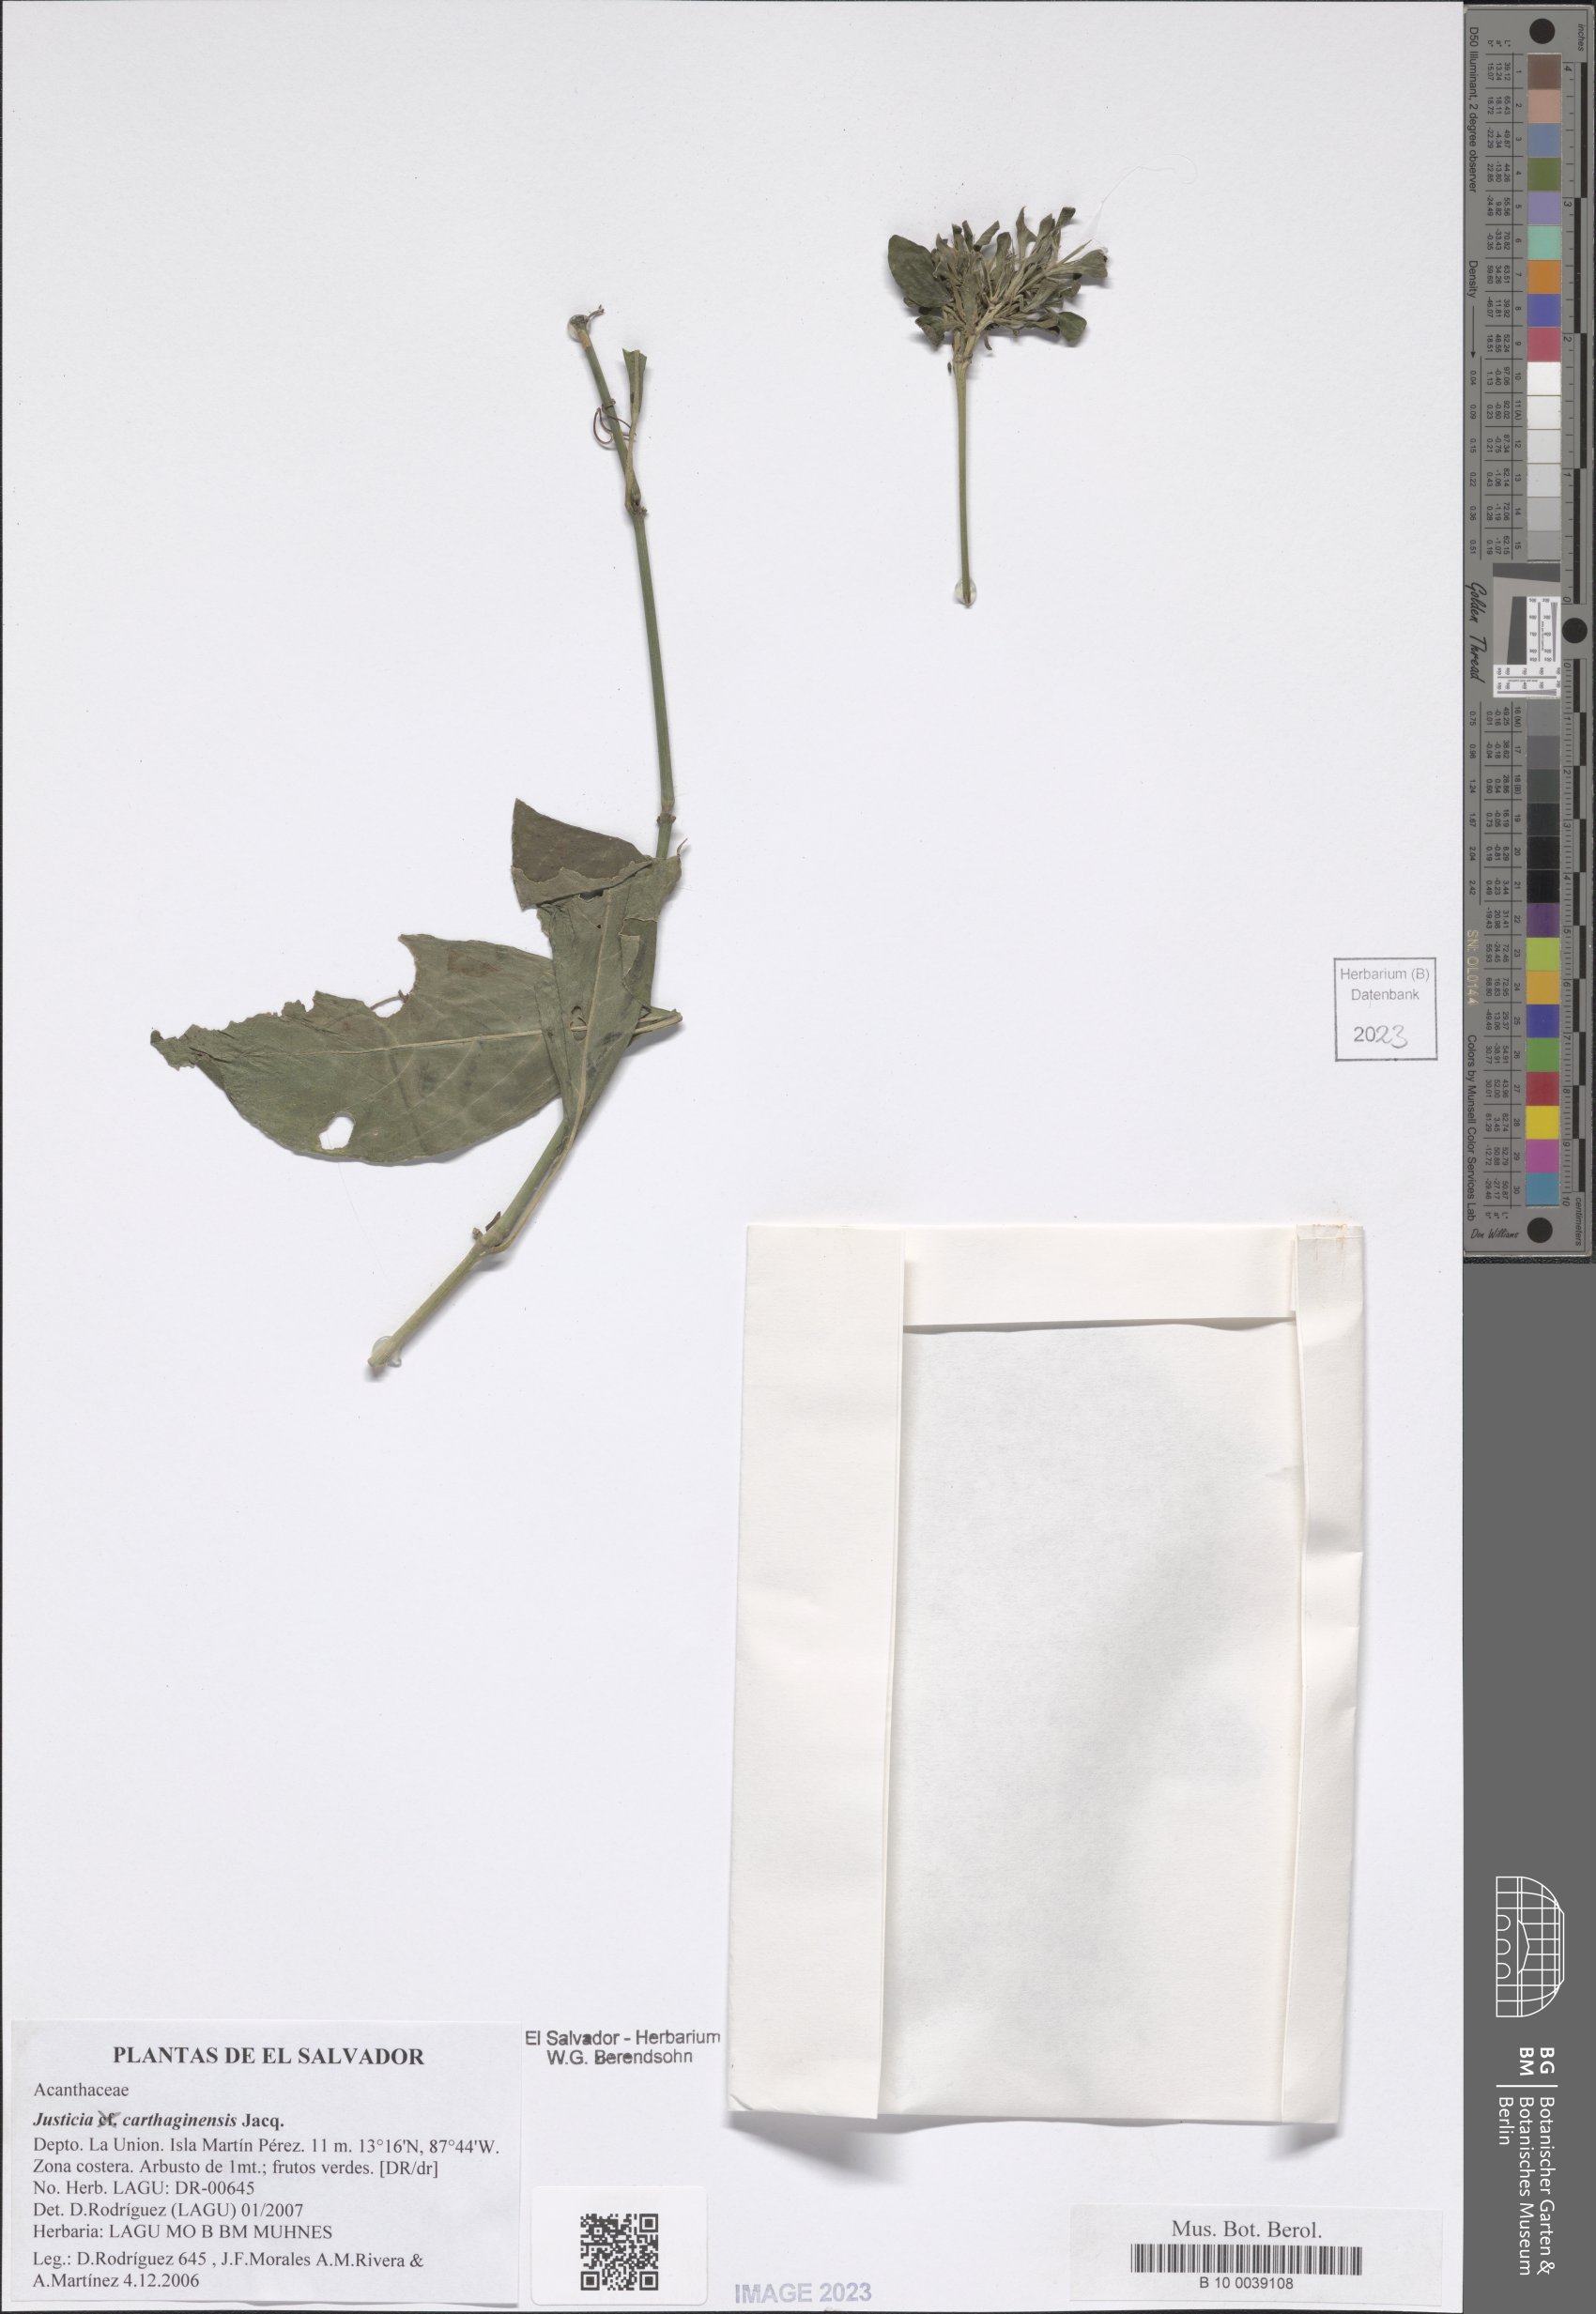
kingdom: Plantae
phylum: Tracheophyta
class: Magnoliopsida
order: Lamiales
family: Acanthaceae
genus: Justicia
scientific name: Justicia carthagenensis
